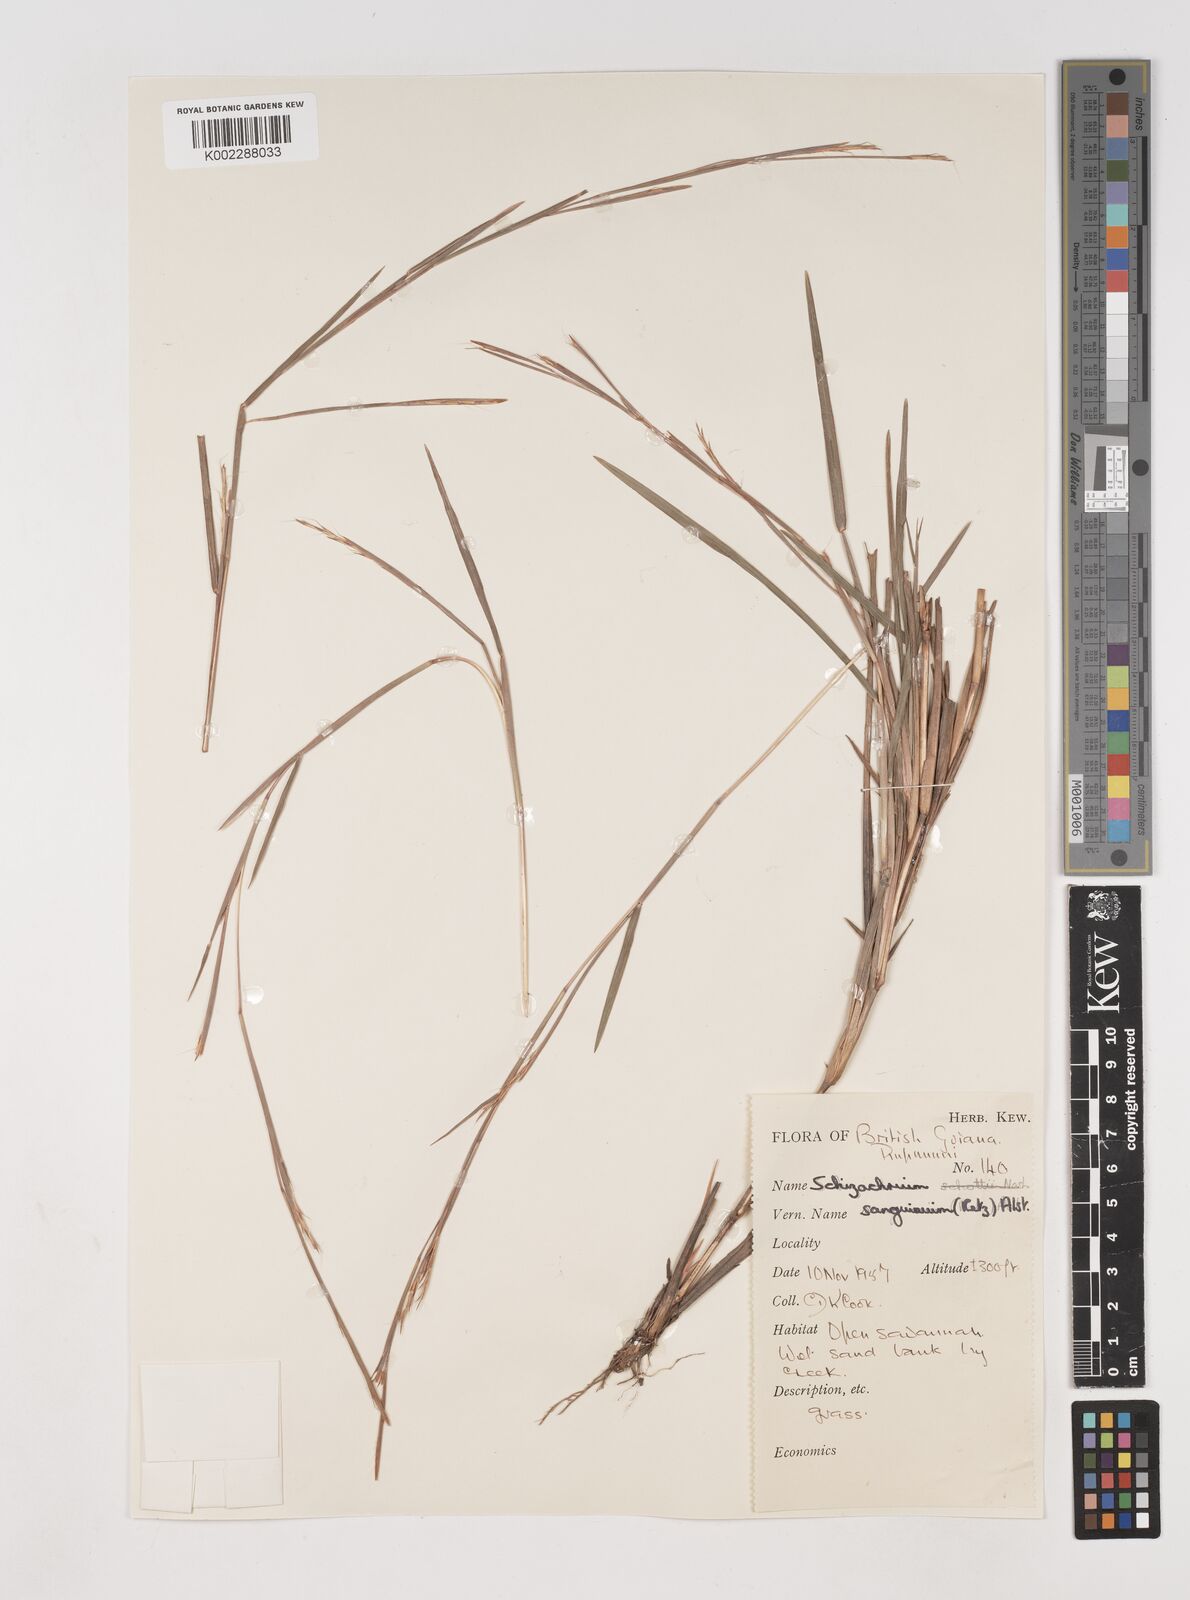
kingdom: Plantae
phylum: Tracheophyta
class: Liliopsida
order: Poales
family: Poaceae
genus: Schizachyrium
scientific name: Schizachyrium sanguineum
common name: Crimson bluestem
